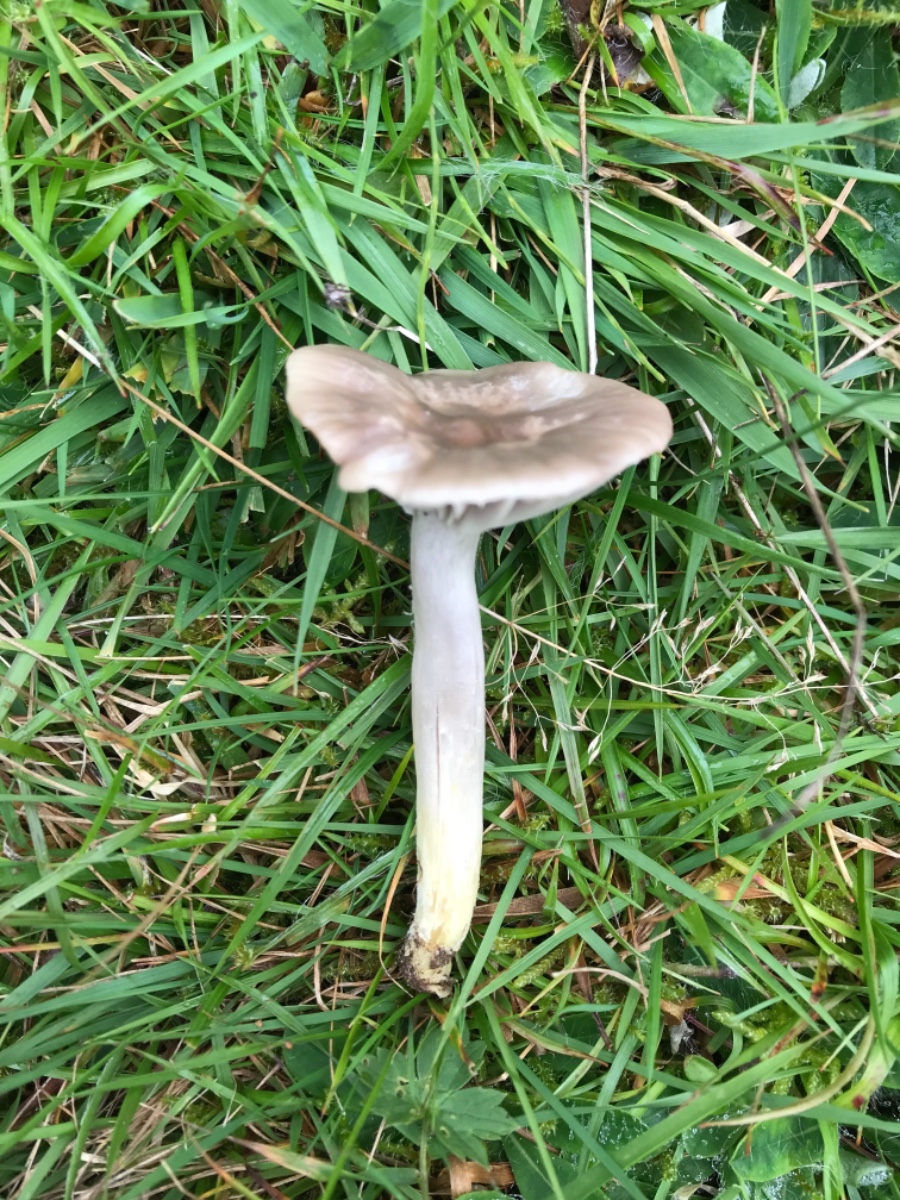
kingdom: Fungi
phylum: Basidiomycota
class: Agaricomycetes
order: Agaricales
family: Hygrophoraceae
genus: Cuphophyllus
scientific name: Cuphophyllus flavipes
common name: gulfodet vokshat
